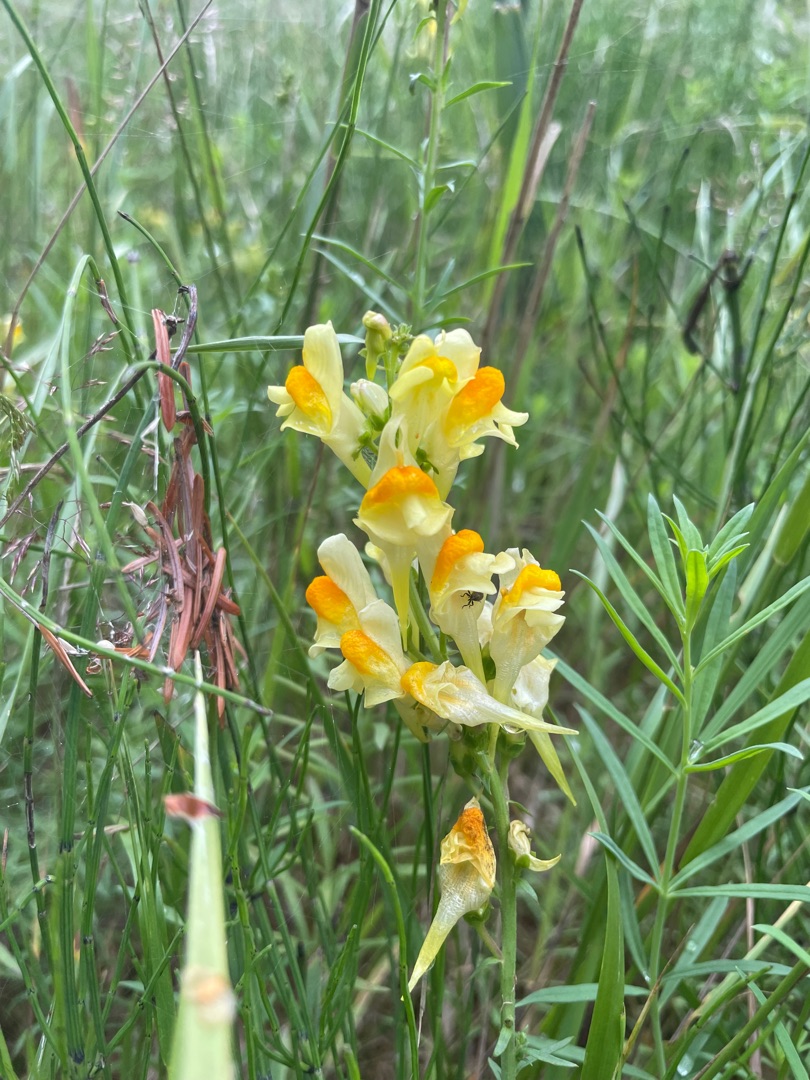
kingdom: Plantae
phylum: Tracheophyta
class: Magnoliopsida
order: Lamiales
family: Plantaginaceae
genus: Linaria
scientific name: Linaria vulgaris
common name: Almindelig torskemund
